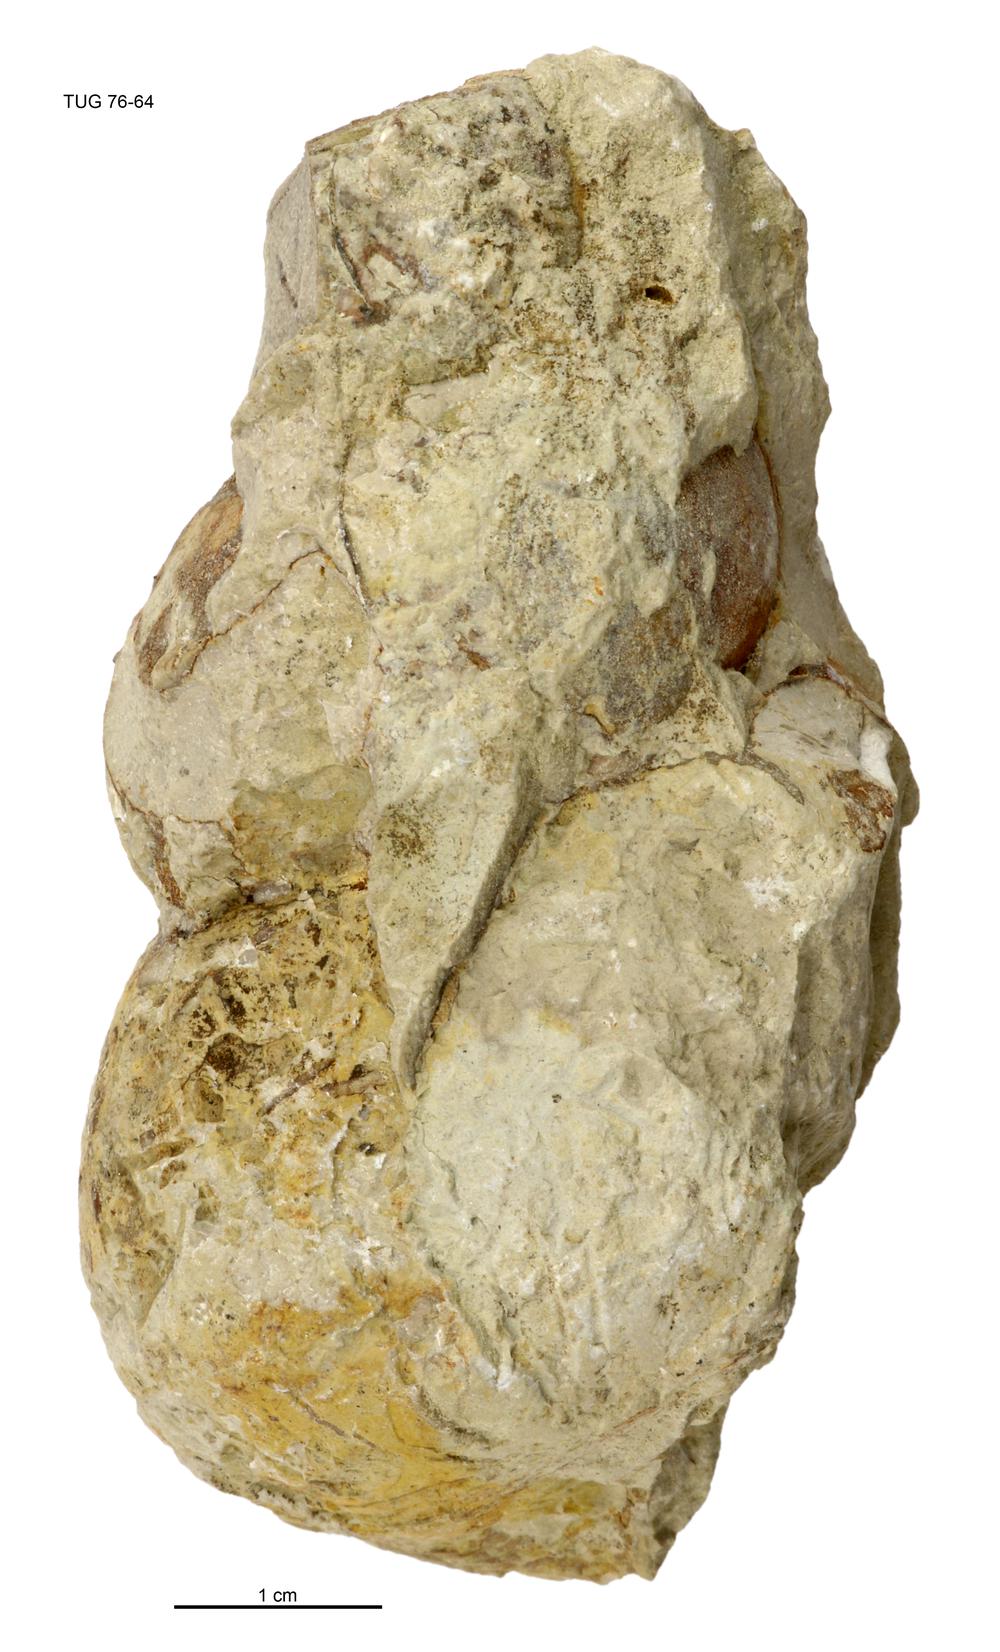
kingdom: Animalia
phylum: Mollusca
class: Gastropoda
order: Pleurotomariida
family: Murchisoniidae
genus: Murchisonia
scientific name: Murchisonia insignis
